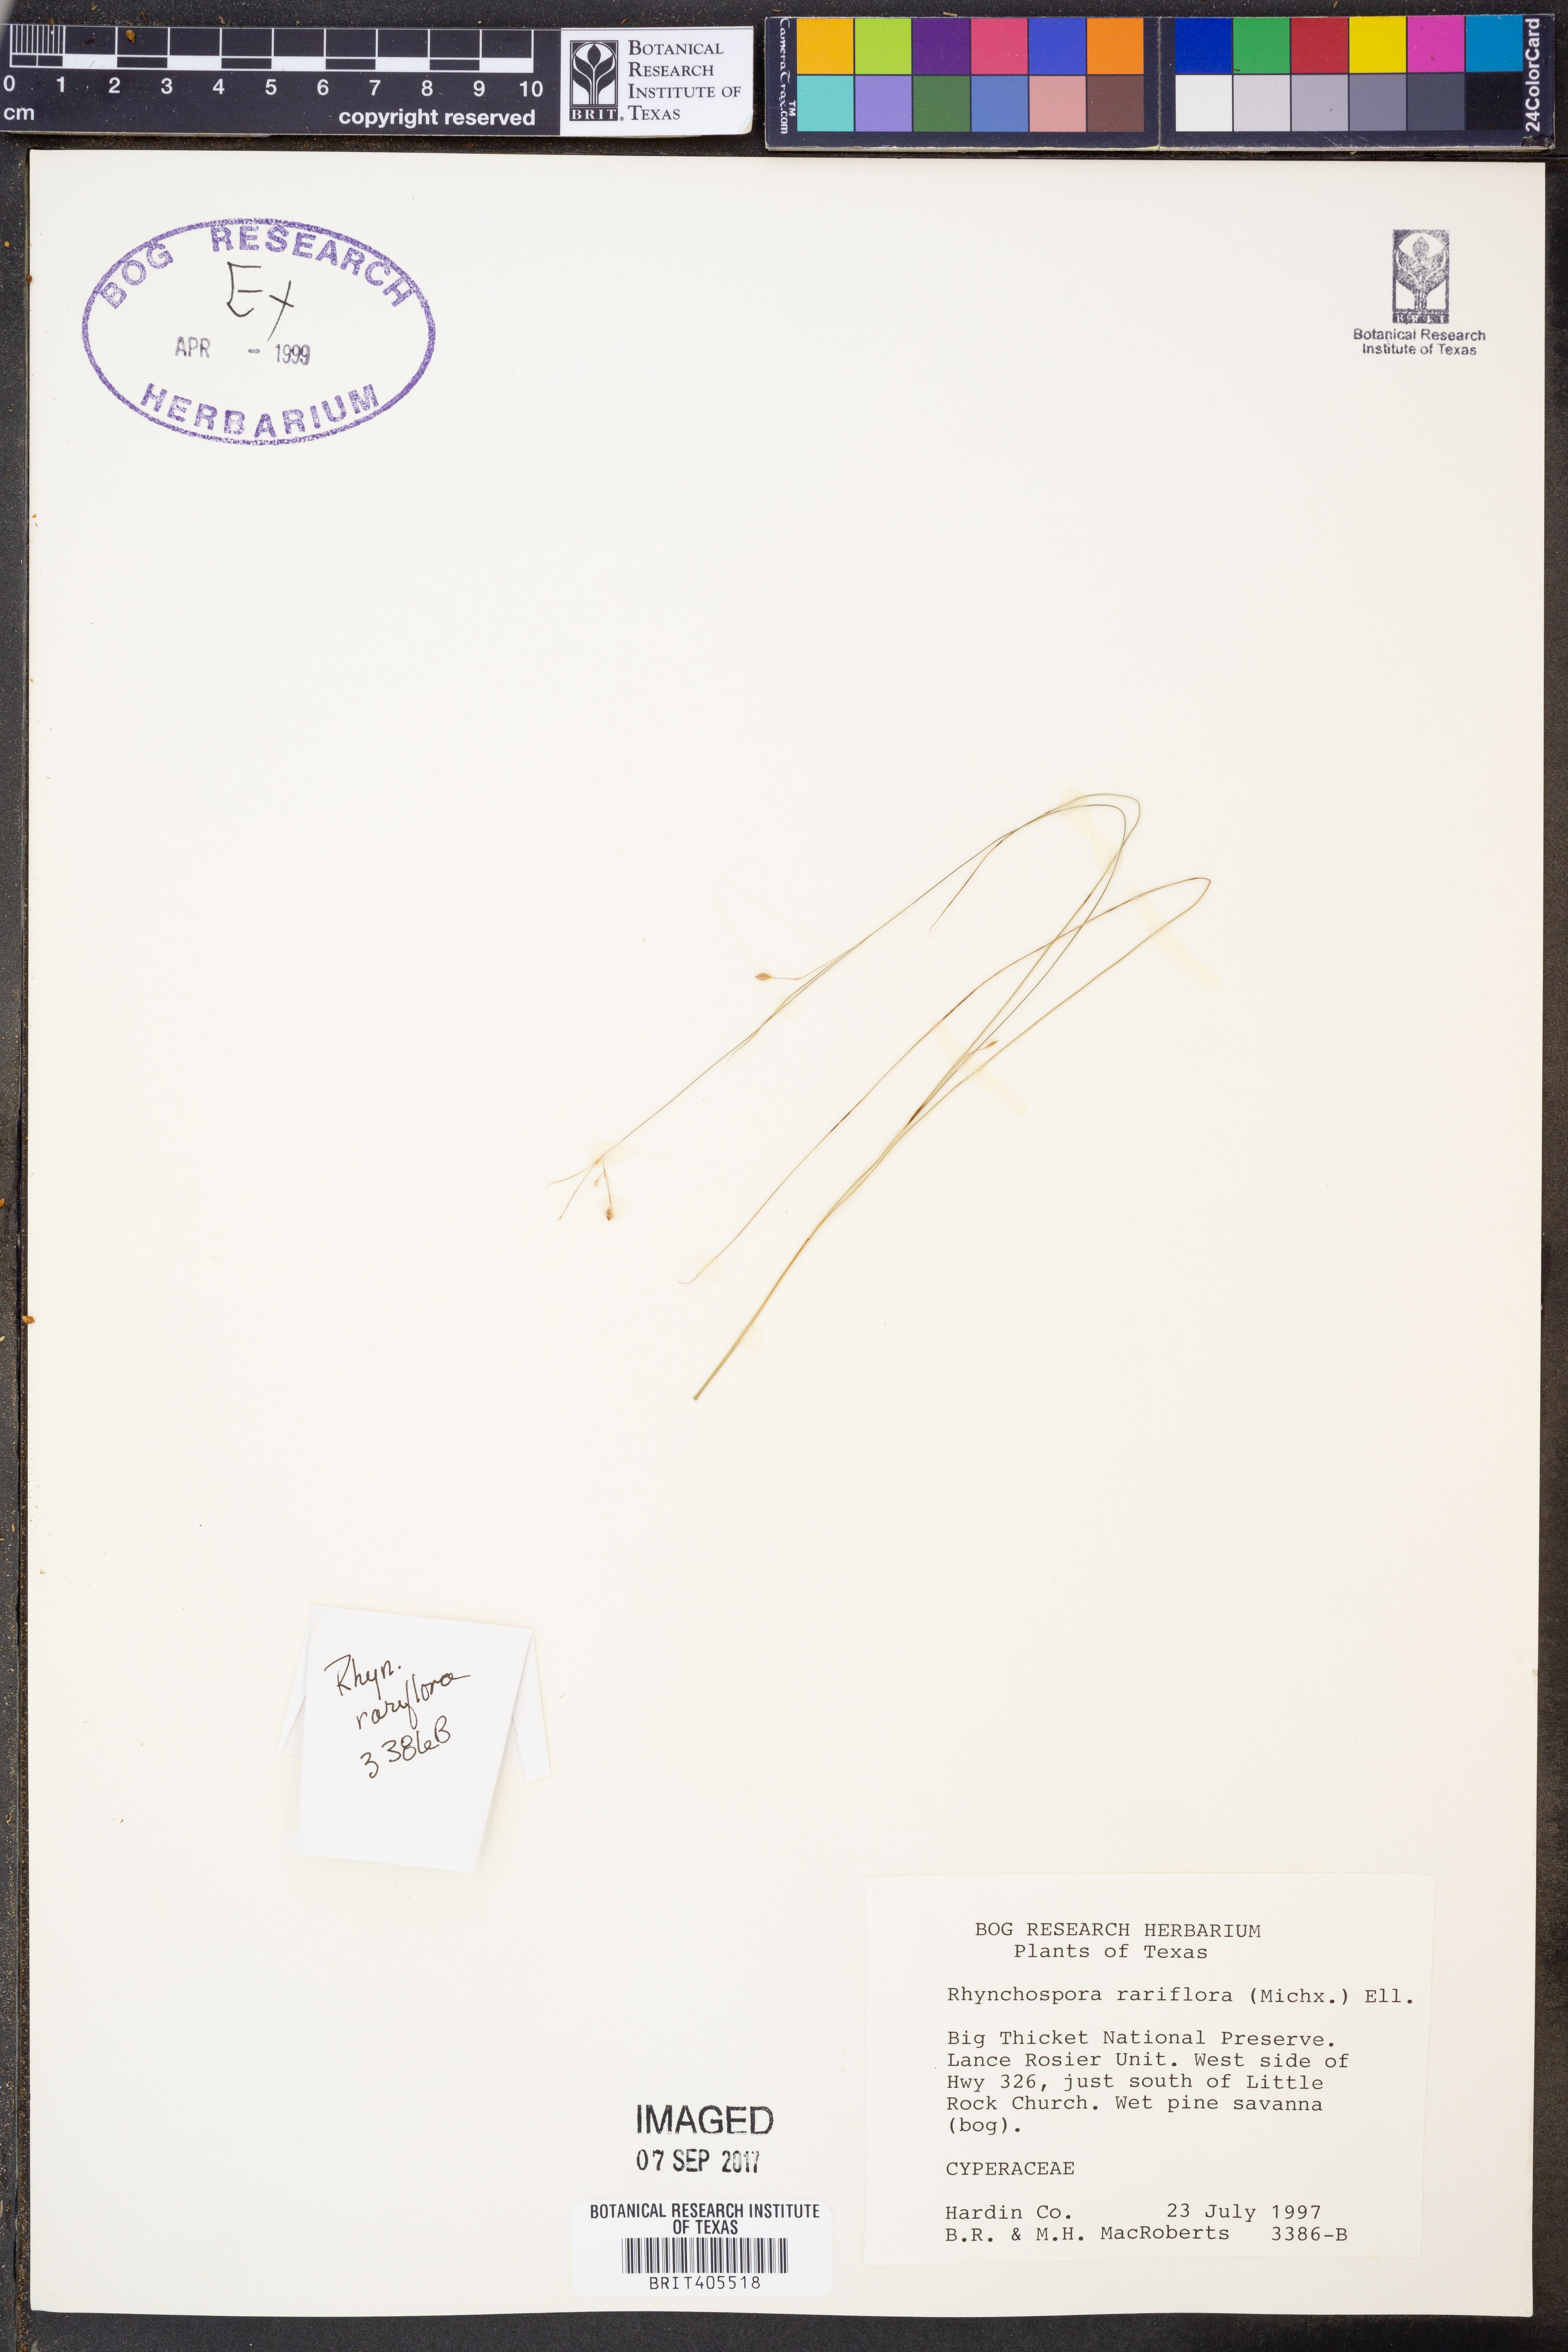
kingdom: Plantae
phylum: Tracheophyta
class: Liliopsida
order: Poales
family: Cyperaceae
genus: Rhynchospora
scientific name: Rhynchospora rariflora
